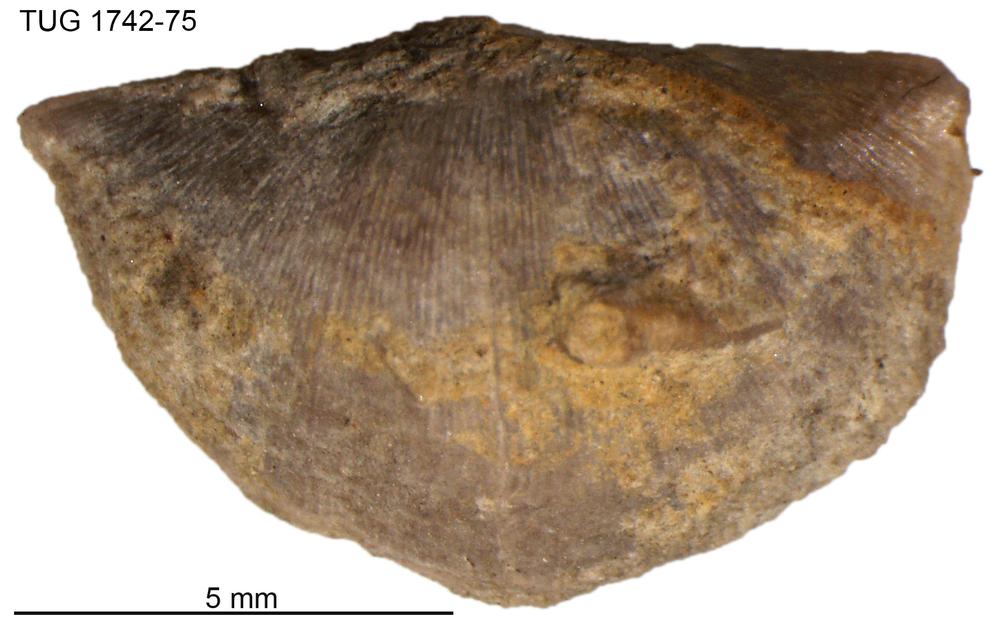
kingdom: Animalia
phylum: Brachiopoda
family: Sowerbyellidae
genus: Sowerbyella
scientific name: Sowerbyella liliifera
